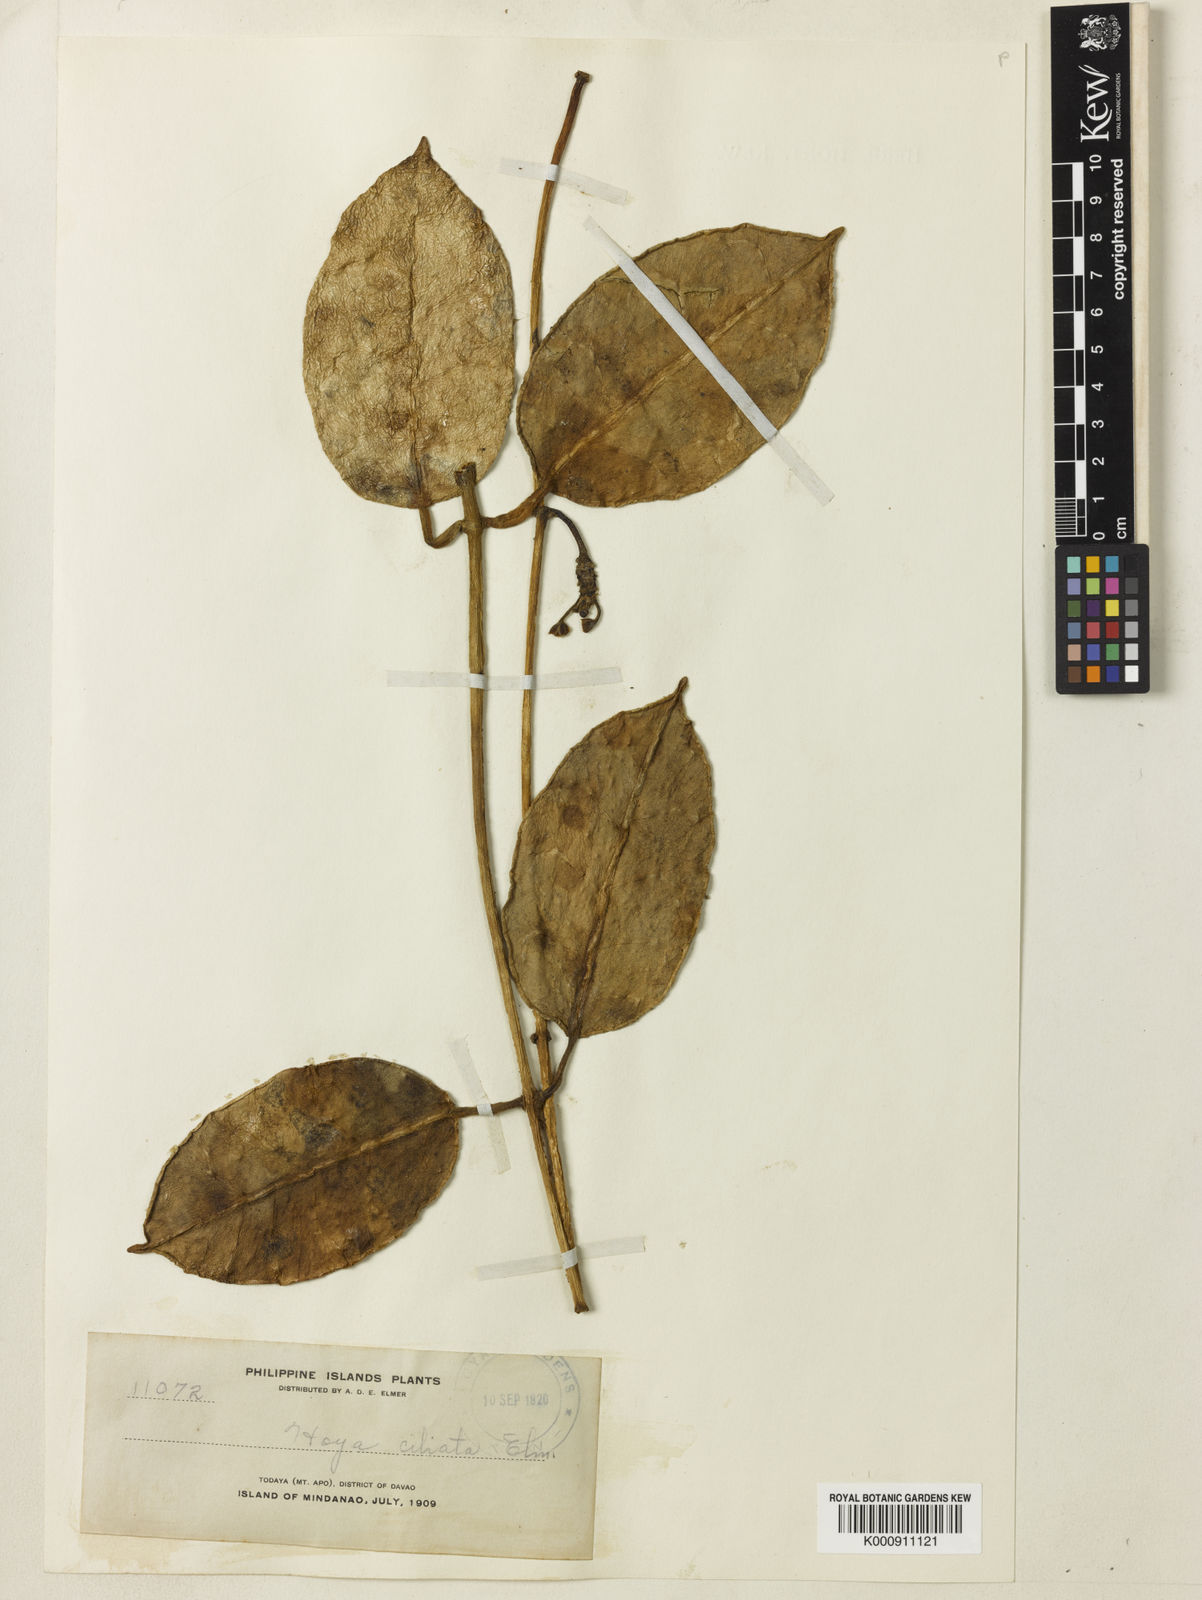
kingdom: Plantae
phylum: Tracheophyta
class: Magnoliopsida
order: Gentianales
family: Apocynaceae
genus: Hoya
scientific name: Hoya
